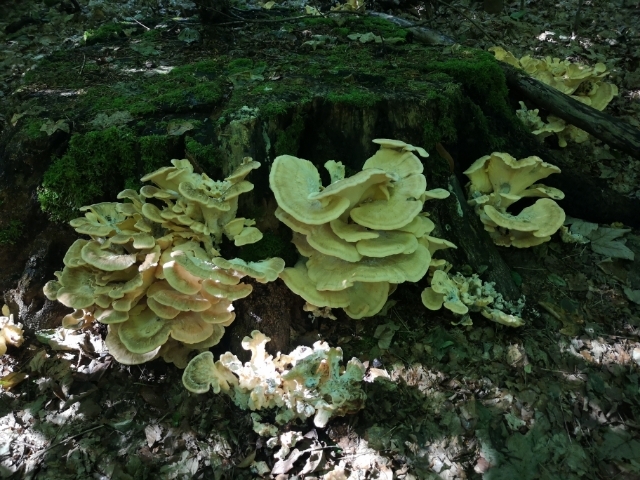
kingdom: Fungi
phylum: Basidiomycota
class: Agaricomycetes
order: Polyporales
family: Meripilaceae
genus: Meripilus
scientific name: Meripilus giganteus
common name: kæmpeporesvamp
